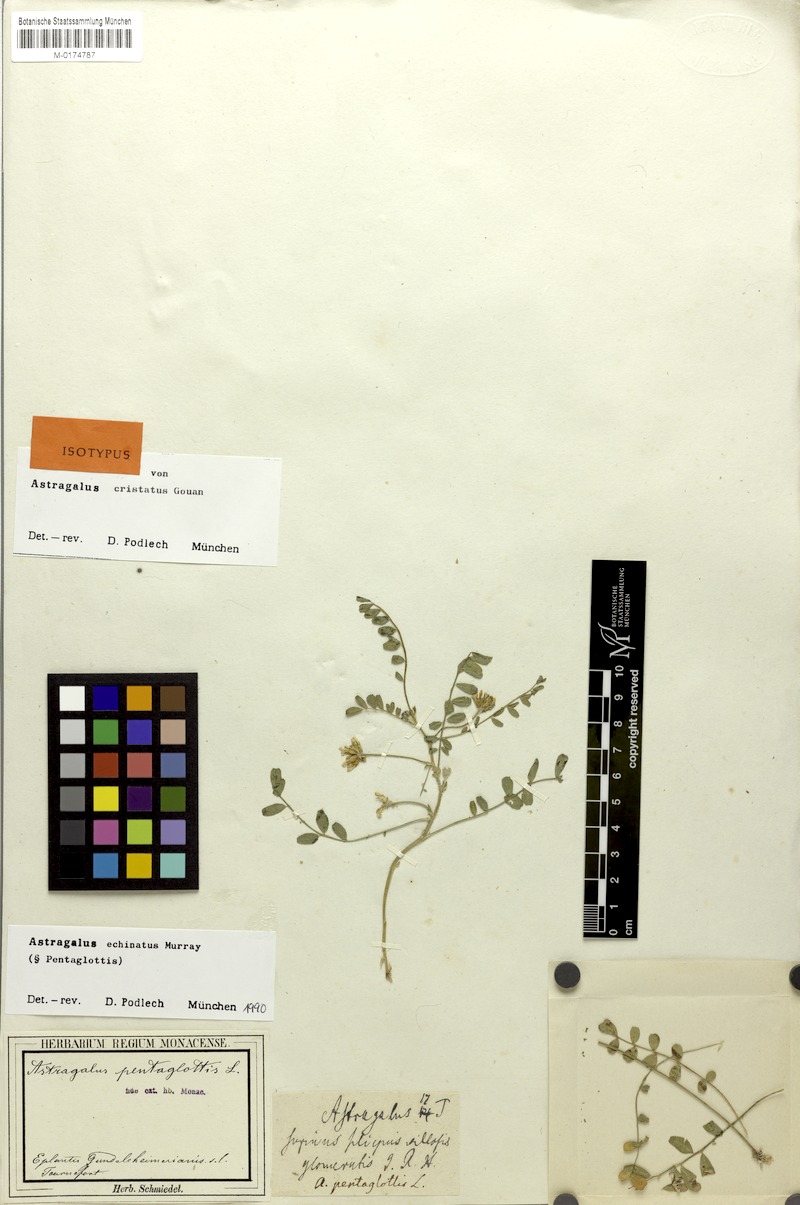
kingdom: Plantae
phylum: Tracheophyta
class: Magnoliopsida
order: Fabales
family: Fabaceae
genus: Astragalus
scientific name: Astragalus echinatus
